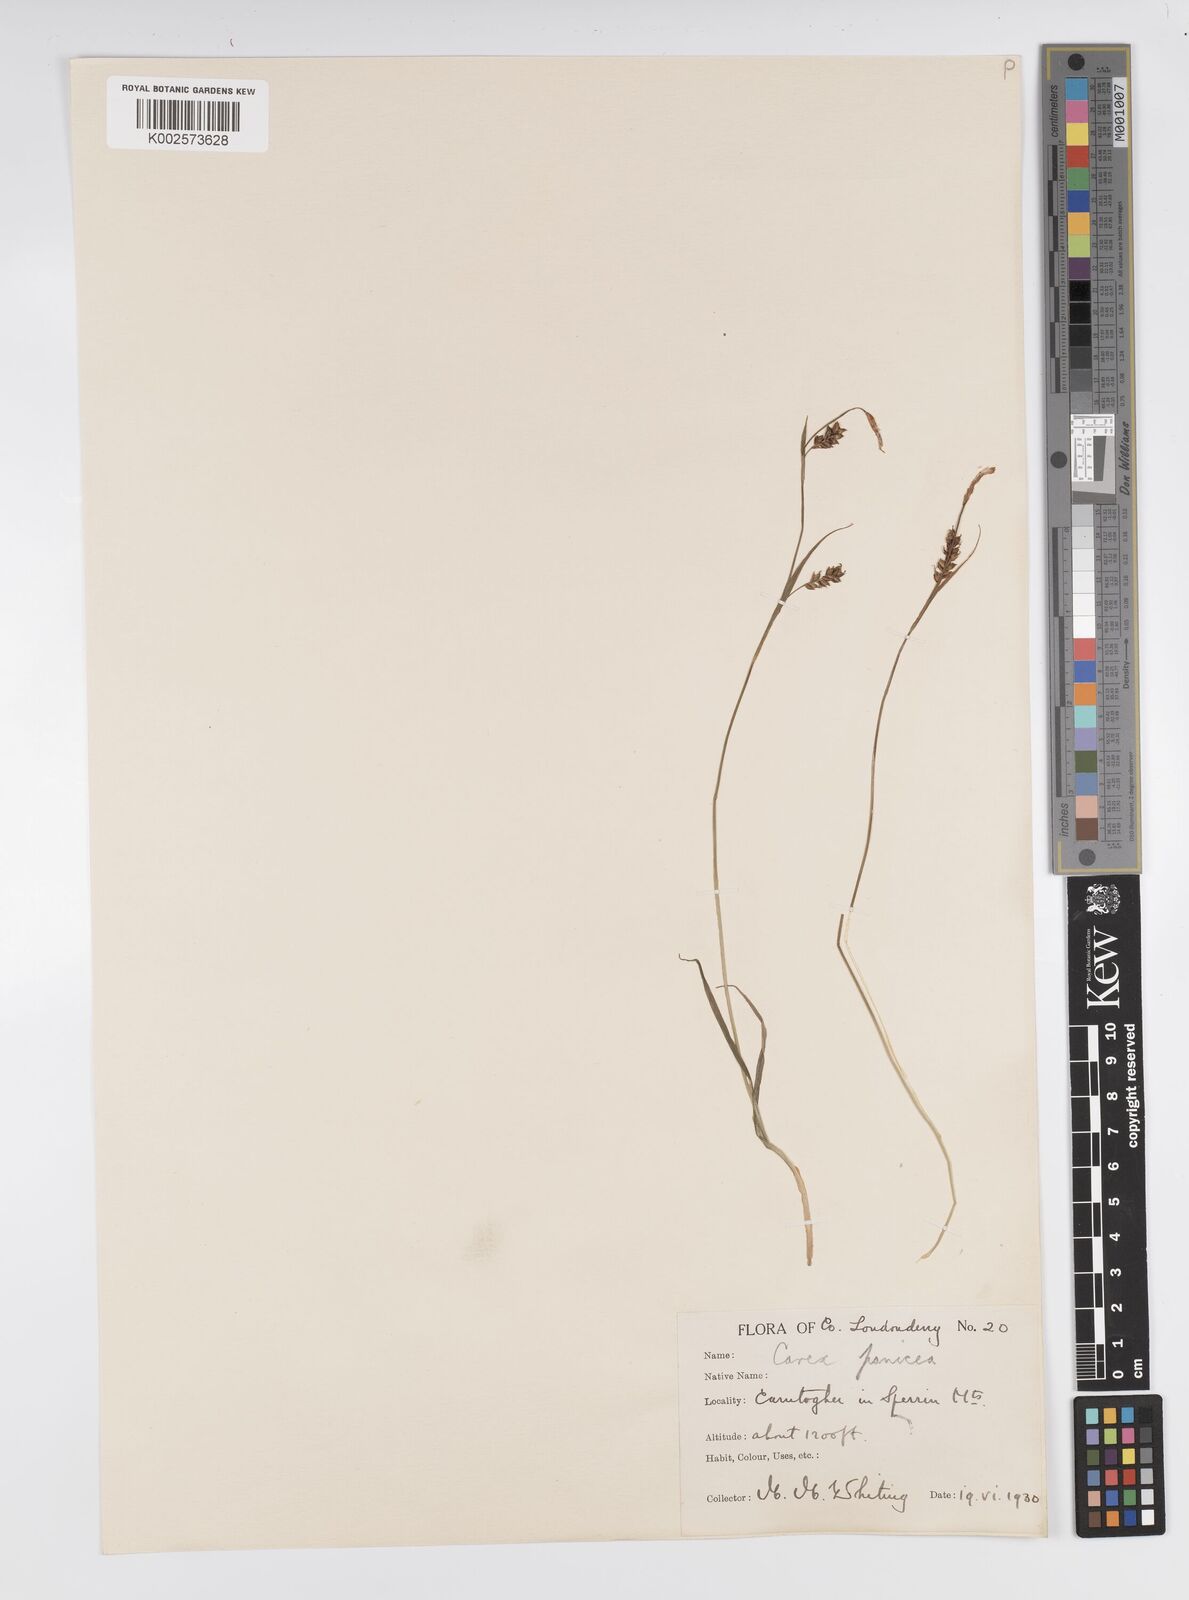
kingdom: Plantae
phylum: Tracheophyta
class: Liliopsida
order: Poales
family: Cyperaceae
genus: Carex
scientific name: Carex panicea
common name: Carnation sedge
